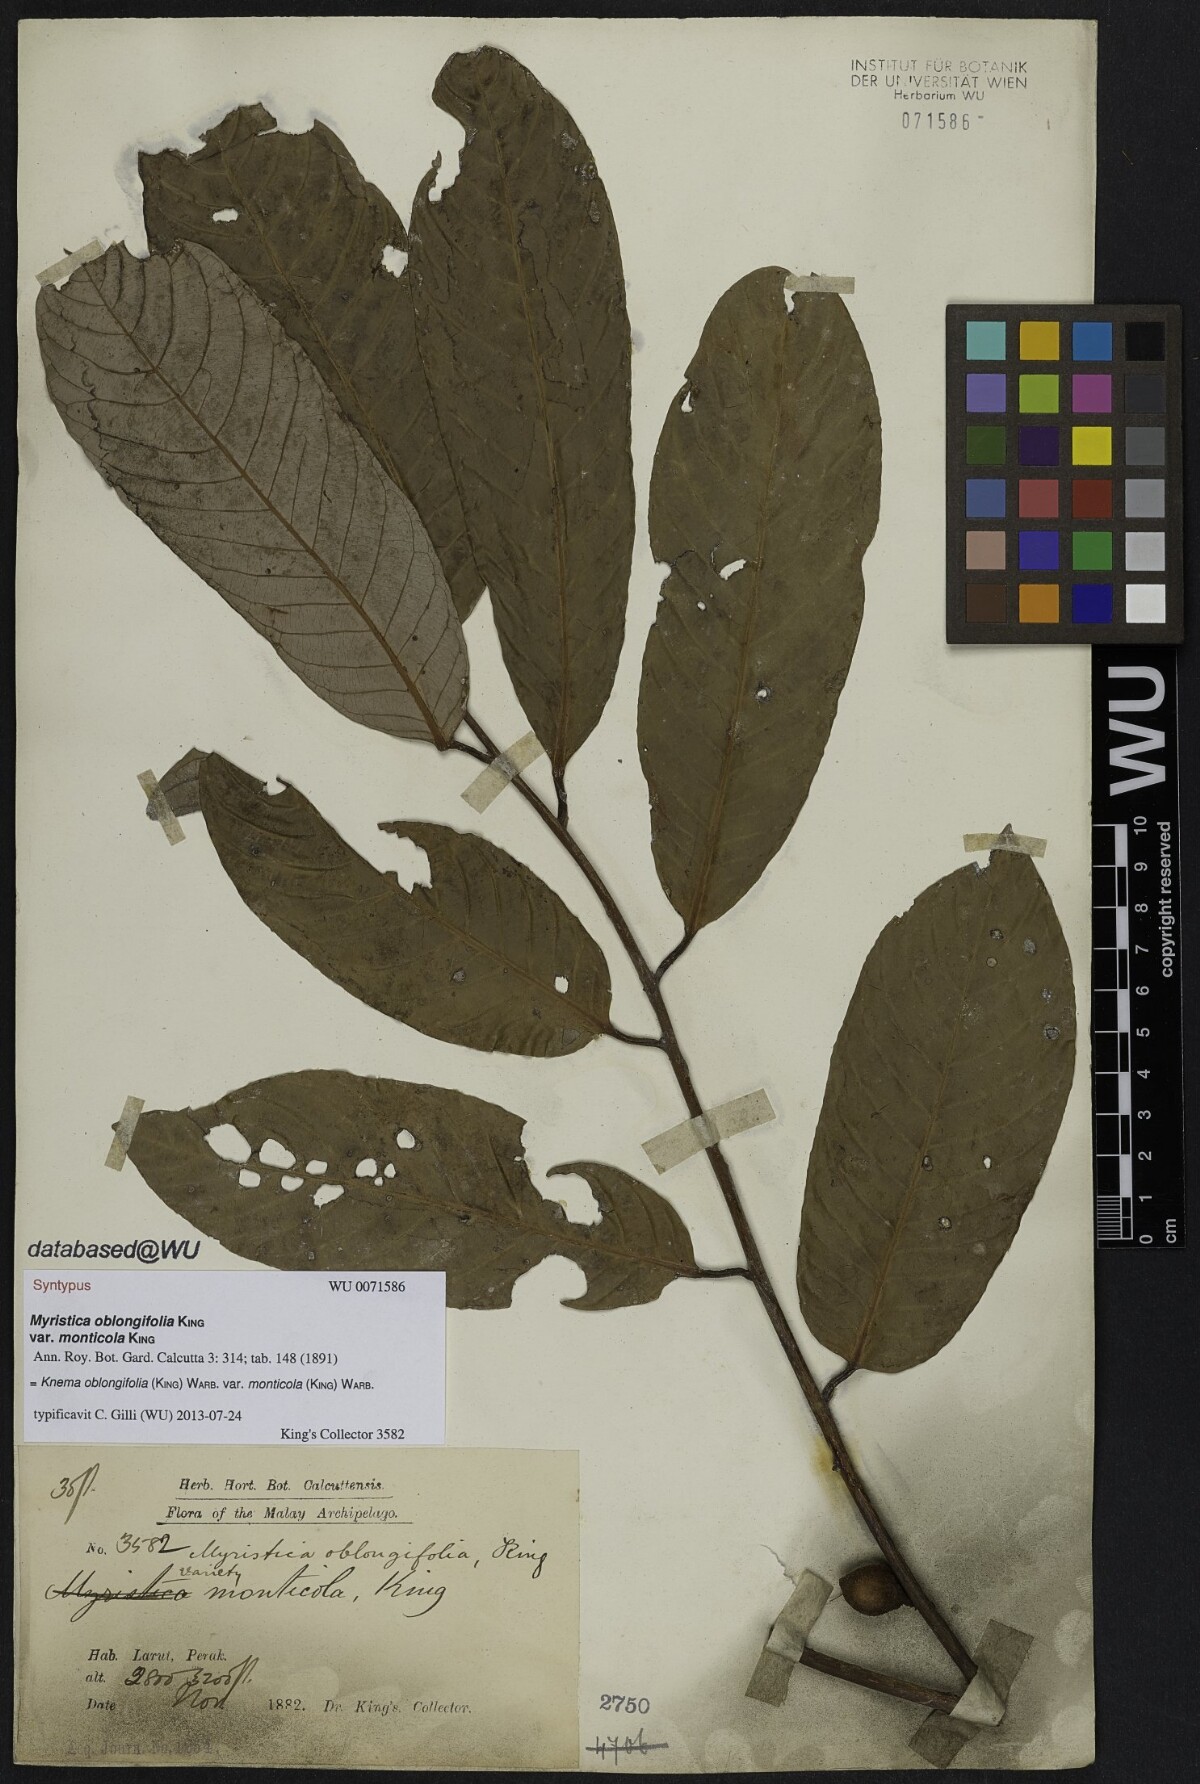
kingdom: Plantae
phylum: Tracheophyta
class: Magnoliopsida
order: Magnoliales
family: Myristicaceae
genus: Knema
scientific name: Knema oblongifolia
